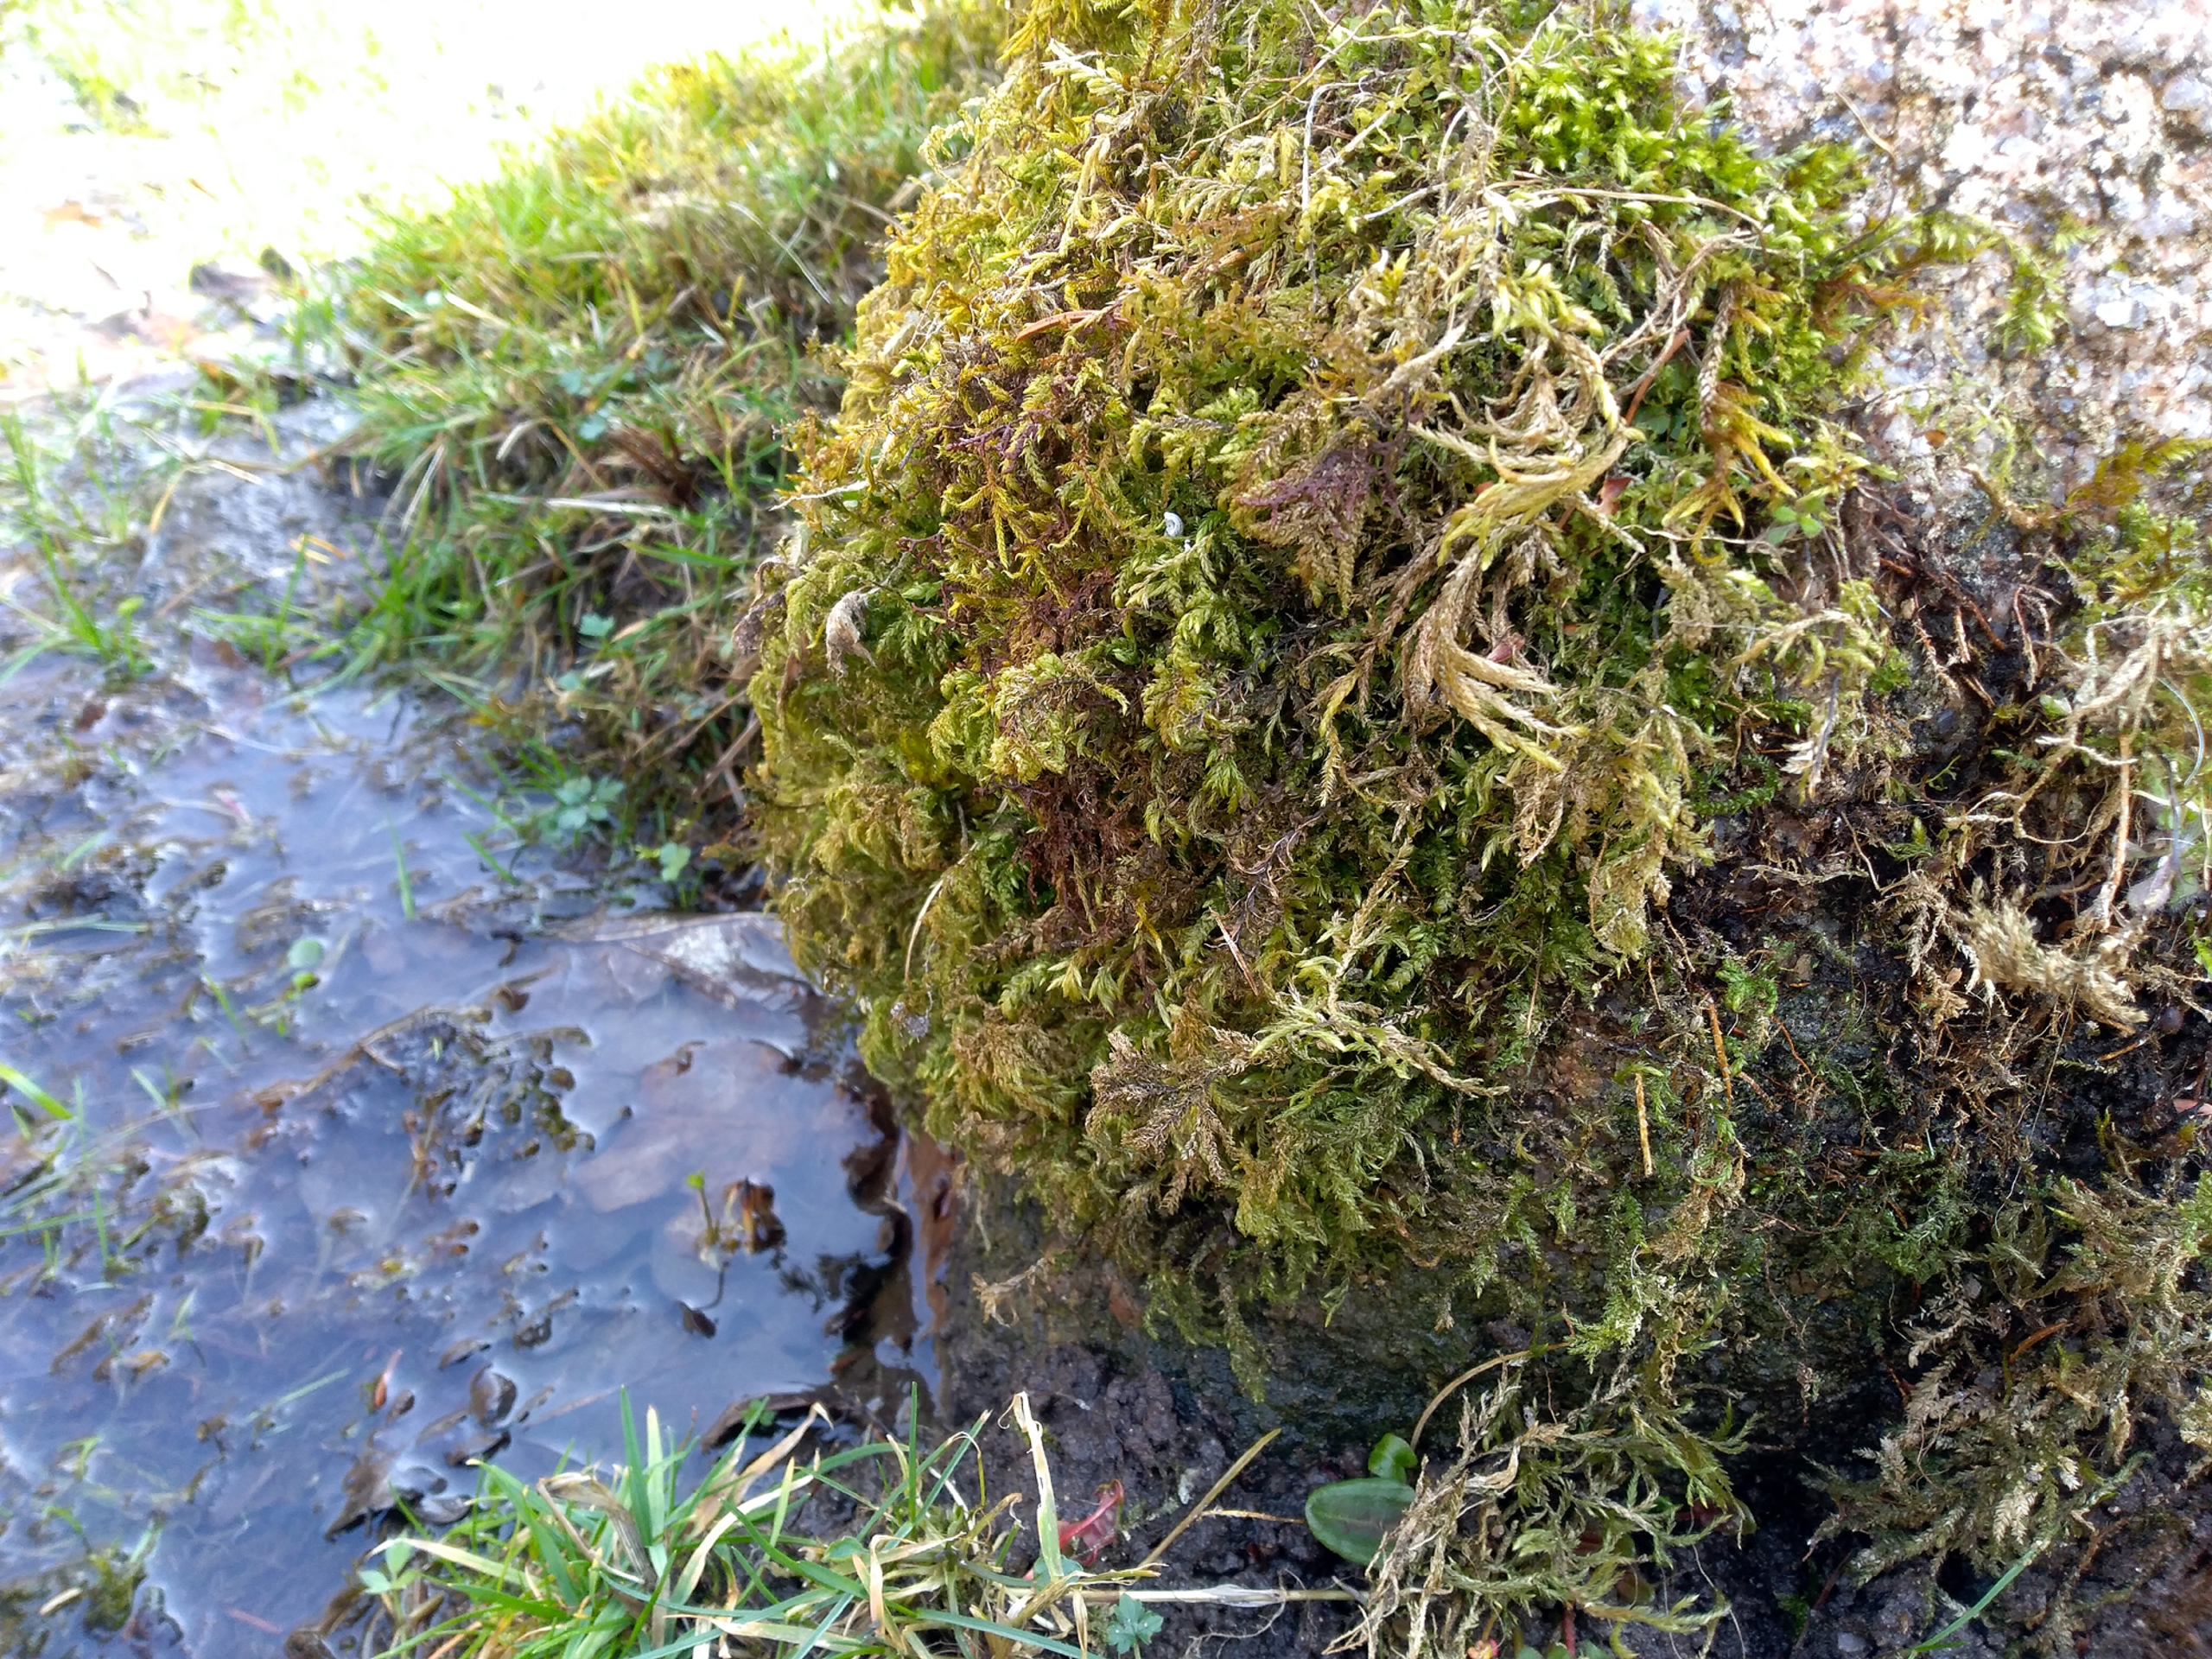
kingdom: Plantae
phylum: Bryophyta
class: Bryopsida
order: Hypnales
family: Neckeraceae
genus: Thamnobryum
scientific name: Thamnobryum alopecurum
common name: Mat bækkost
